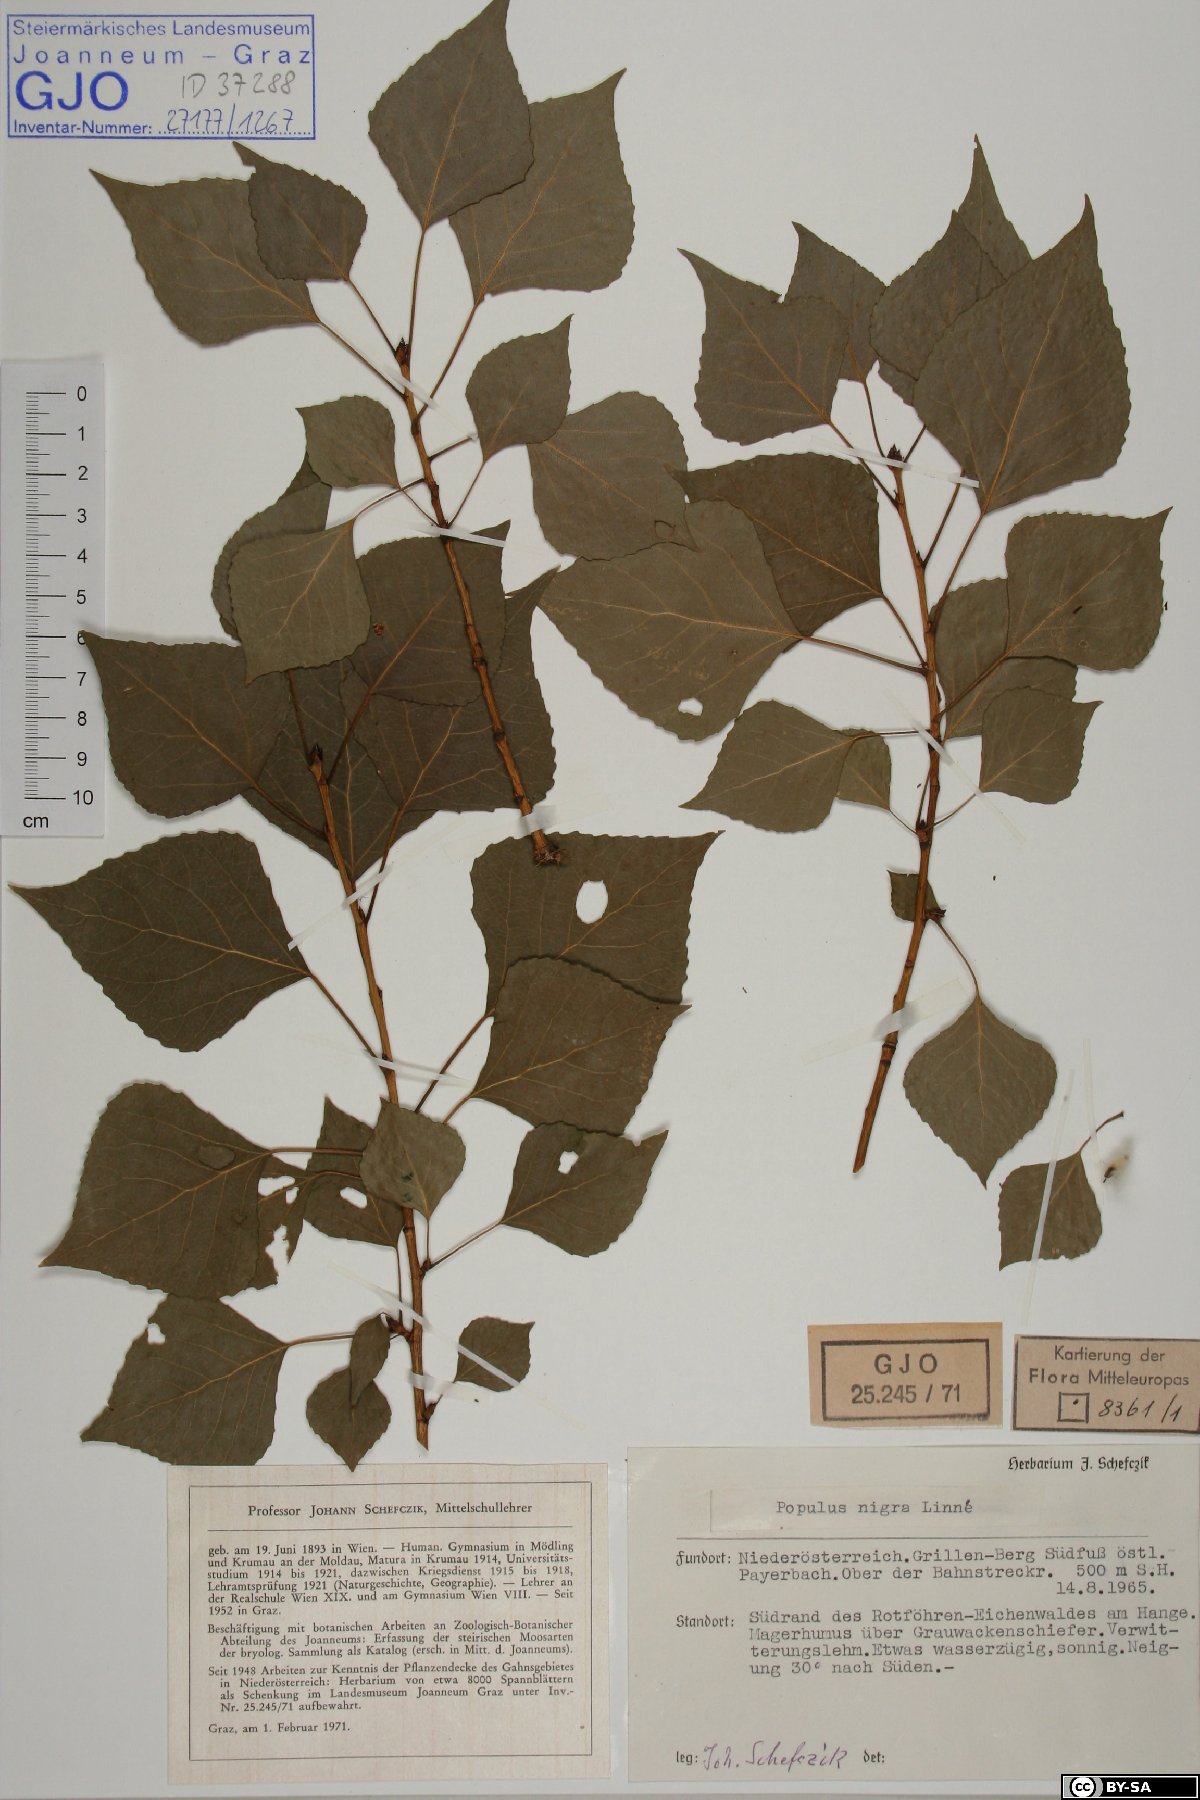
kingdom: Plantae
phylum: Tracheophyta
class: Magnoliopsida
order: Malpighiales
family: Salicaceae
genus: Populus
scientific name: Populus nigra
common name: Black poplar
